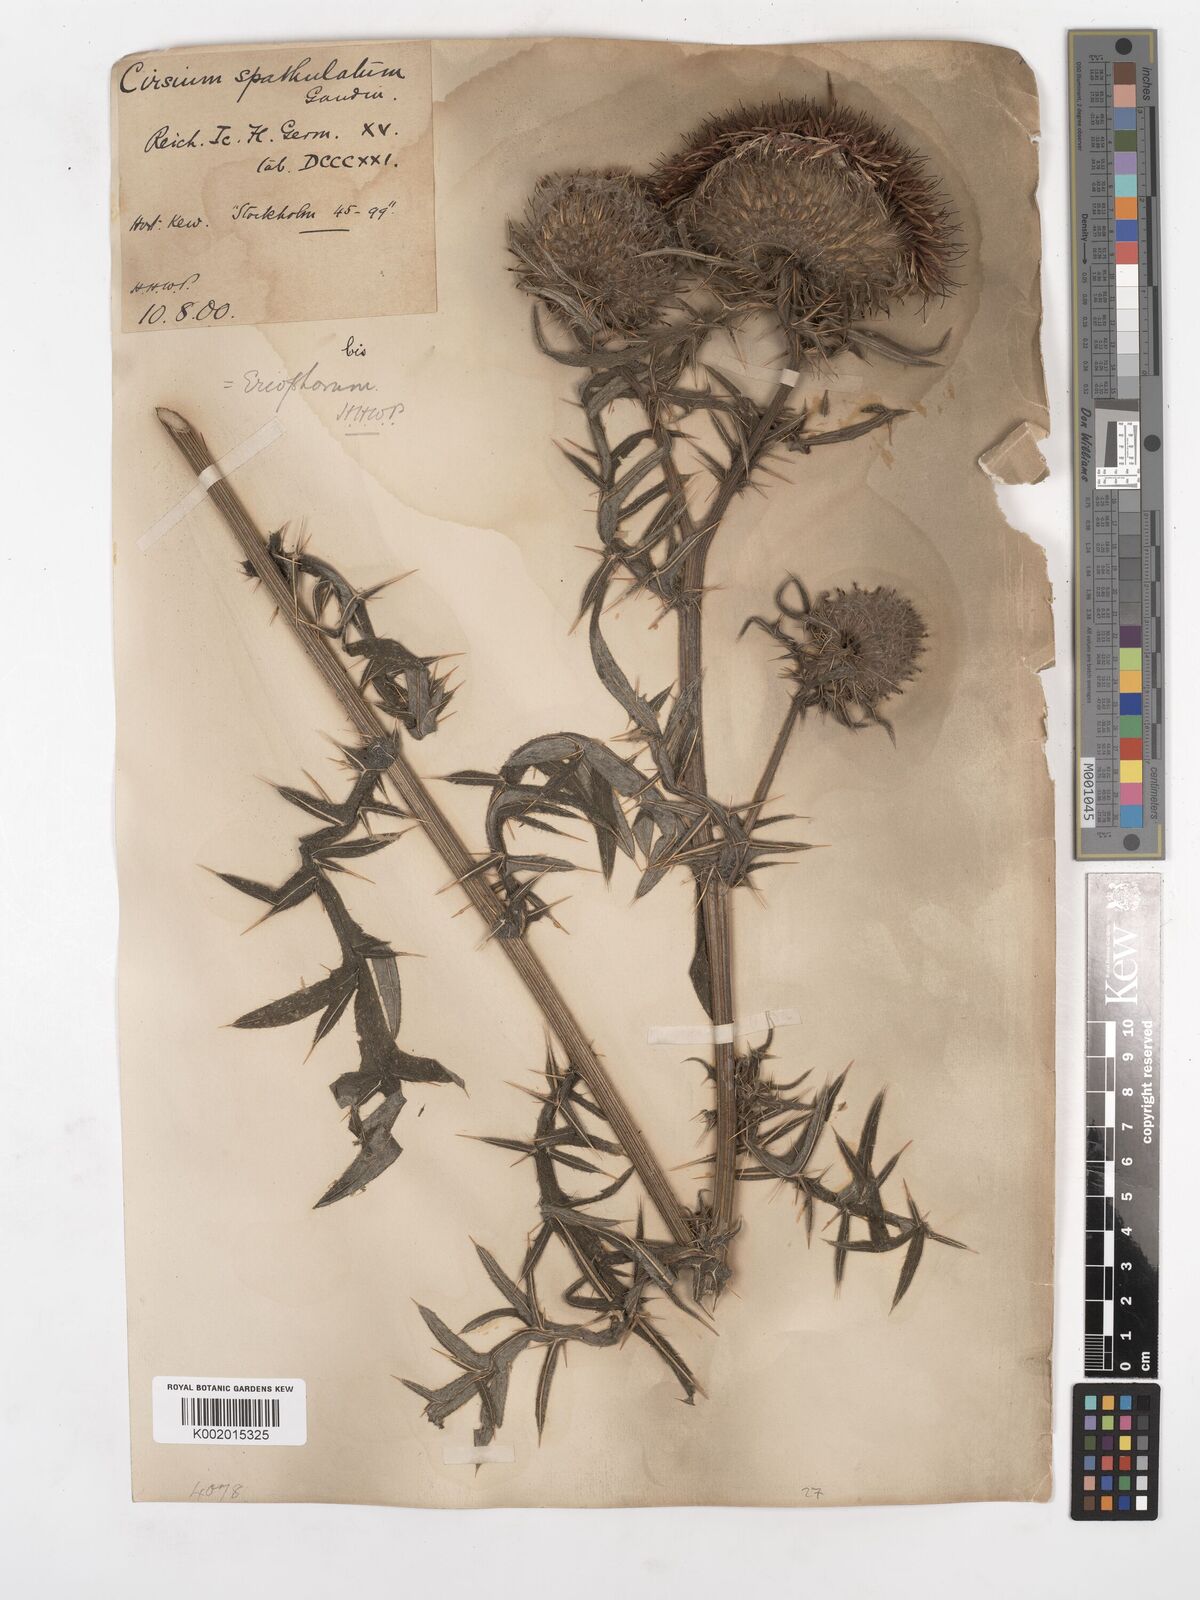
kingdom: Plantae
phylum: Tracheophyta
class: Magnoliopsida
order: Asterales
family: Asteraceae
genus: Lophiolepis
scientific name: Lophiolepis eriophora
